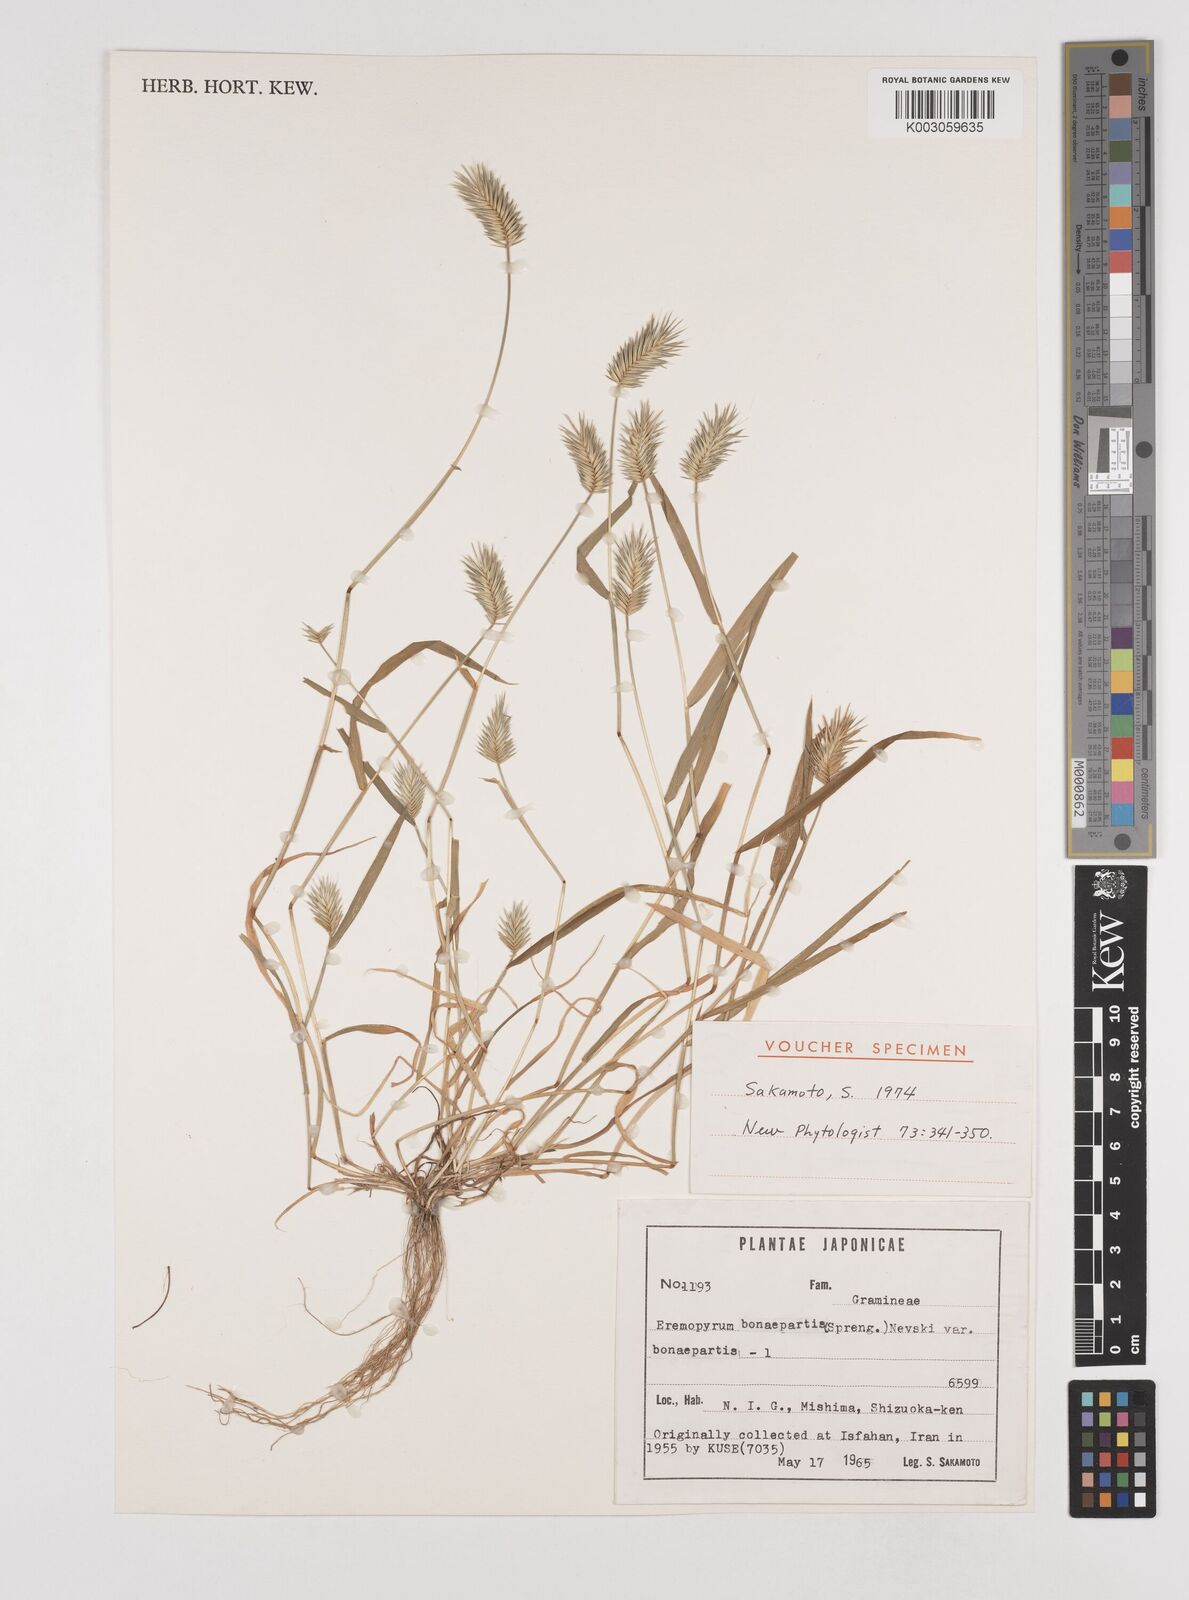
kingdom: Plantae
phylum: Tracheophyta
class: Liliopsida
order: Poales
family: Poaceae
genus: Eremopyrum
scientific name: Eremopyrum bonaepartis
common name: Tapertip false wheatgrass
